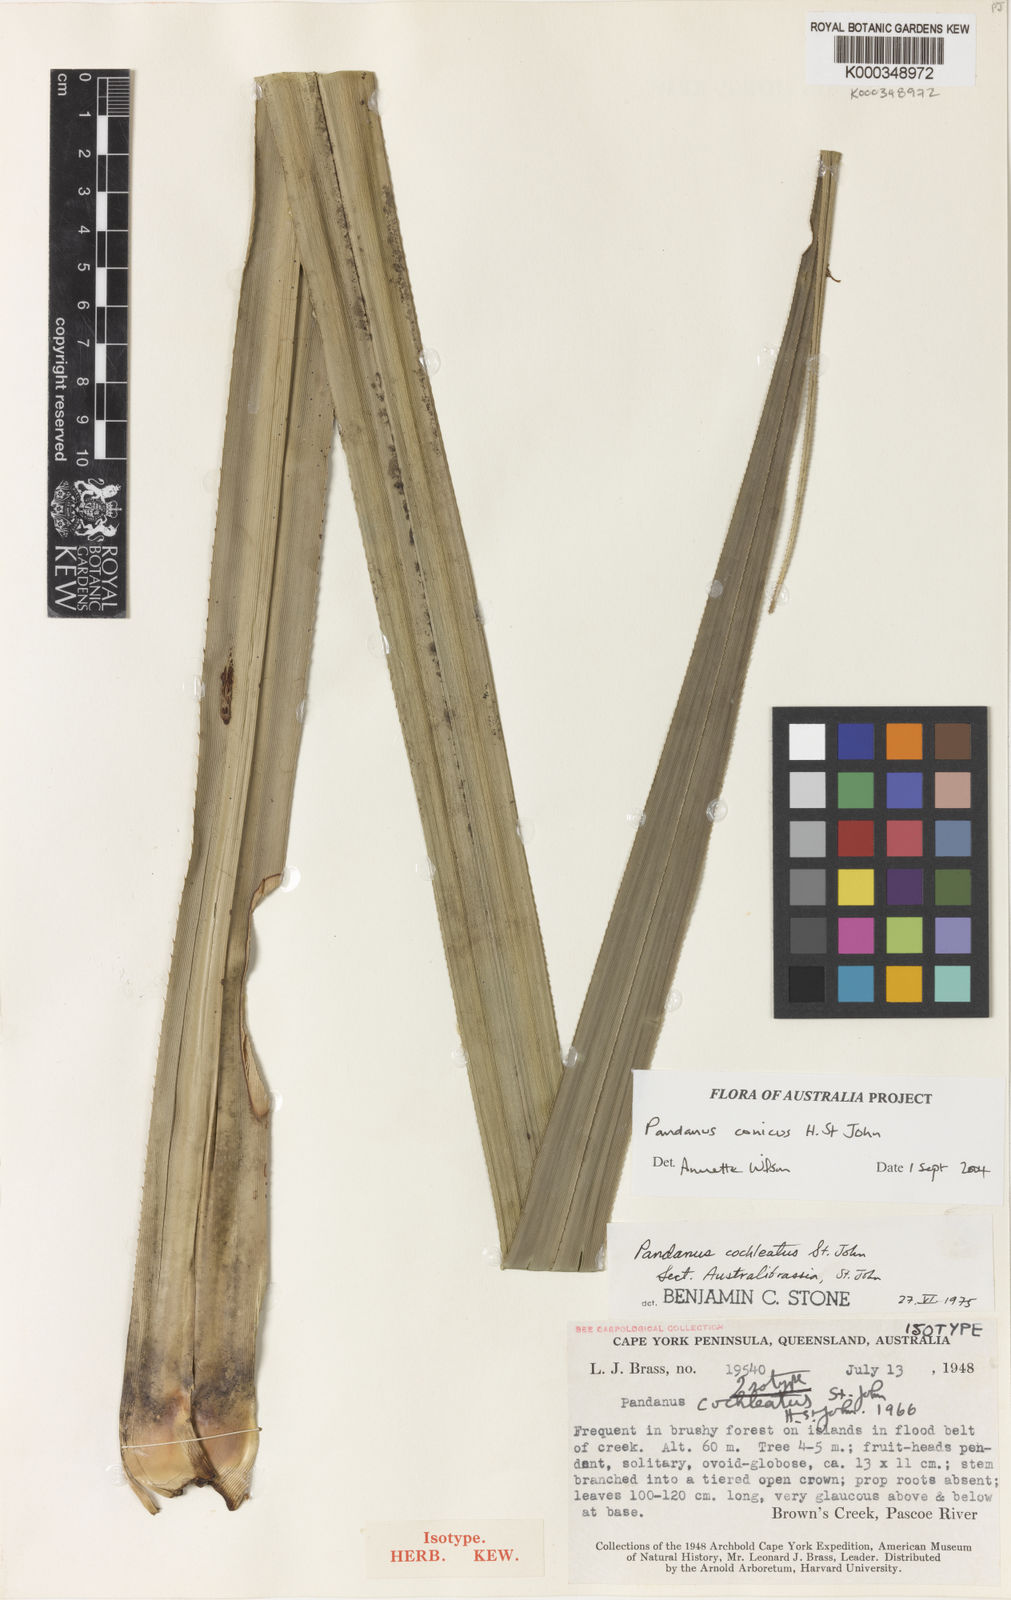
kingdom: Plantae
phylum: Tracheophyta
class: Liliopsida
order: Pandanales
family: Pandanaceae
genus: Pandanus
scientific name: Pandanus conicus
